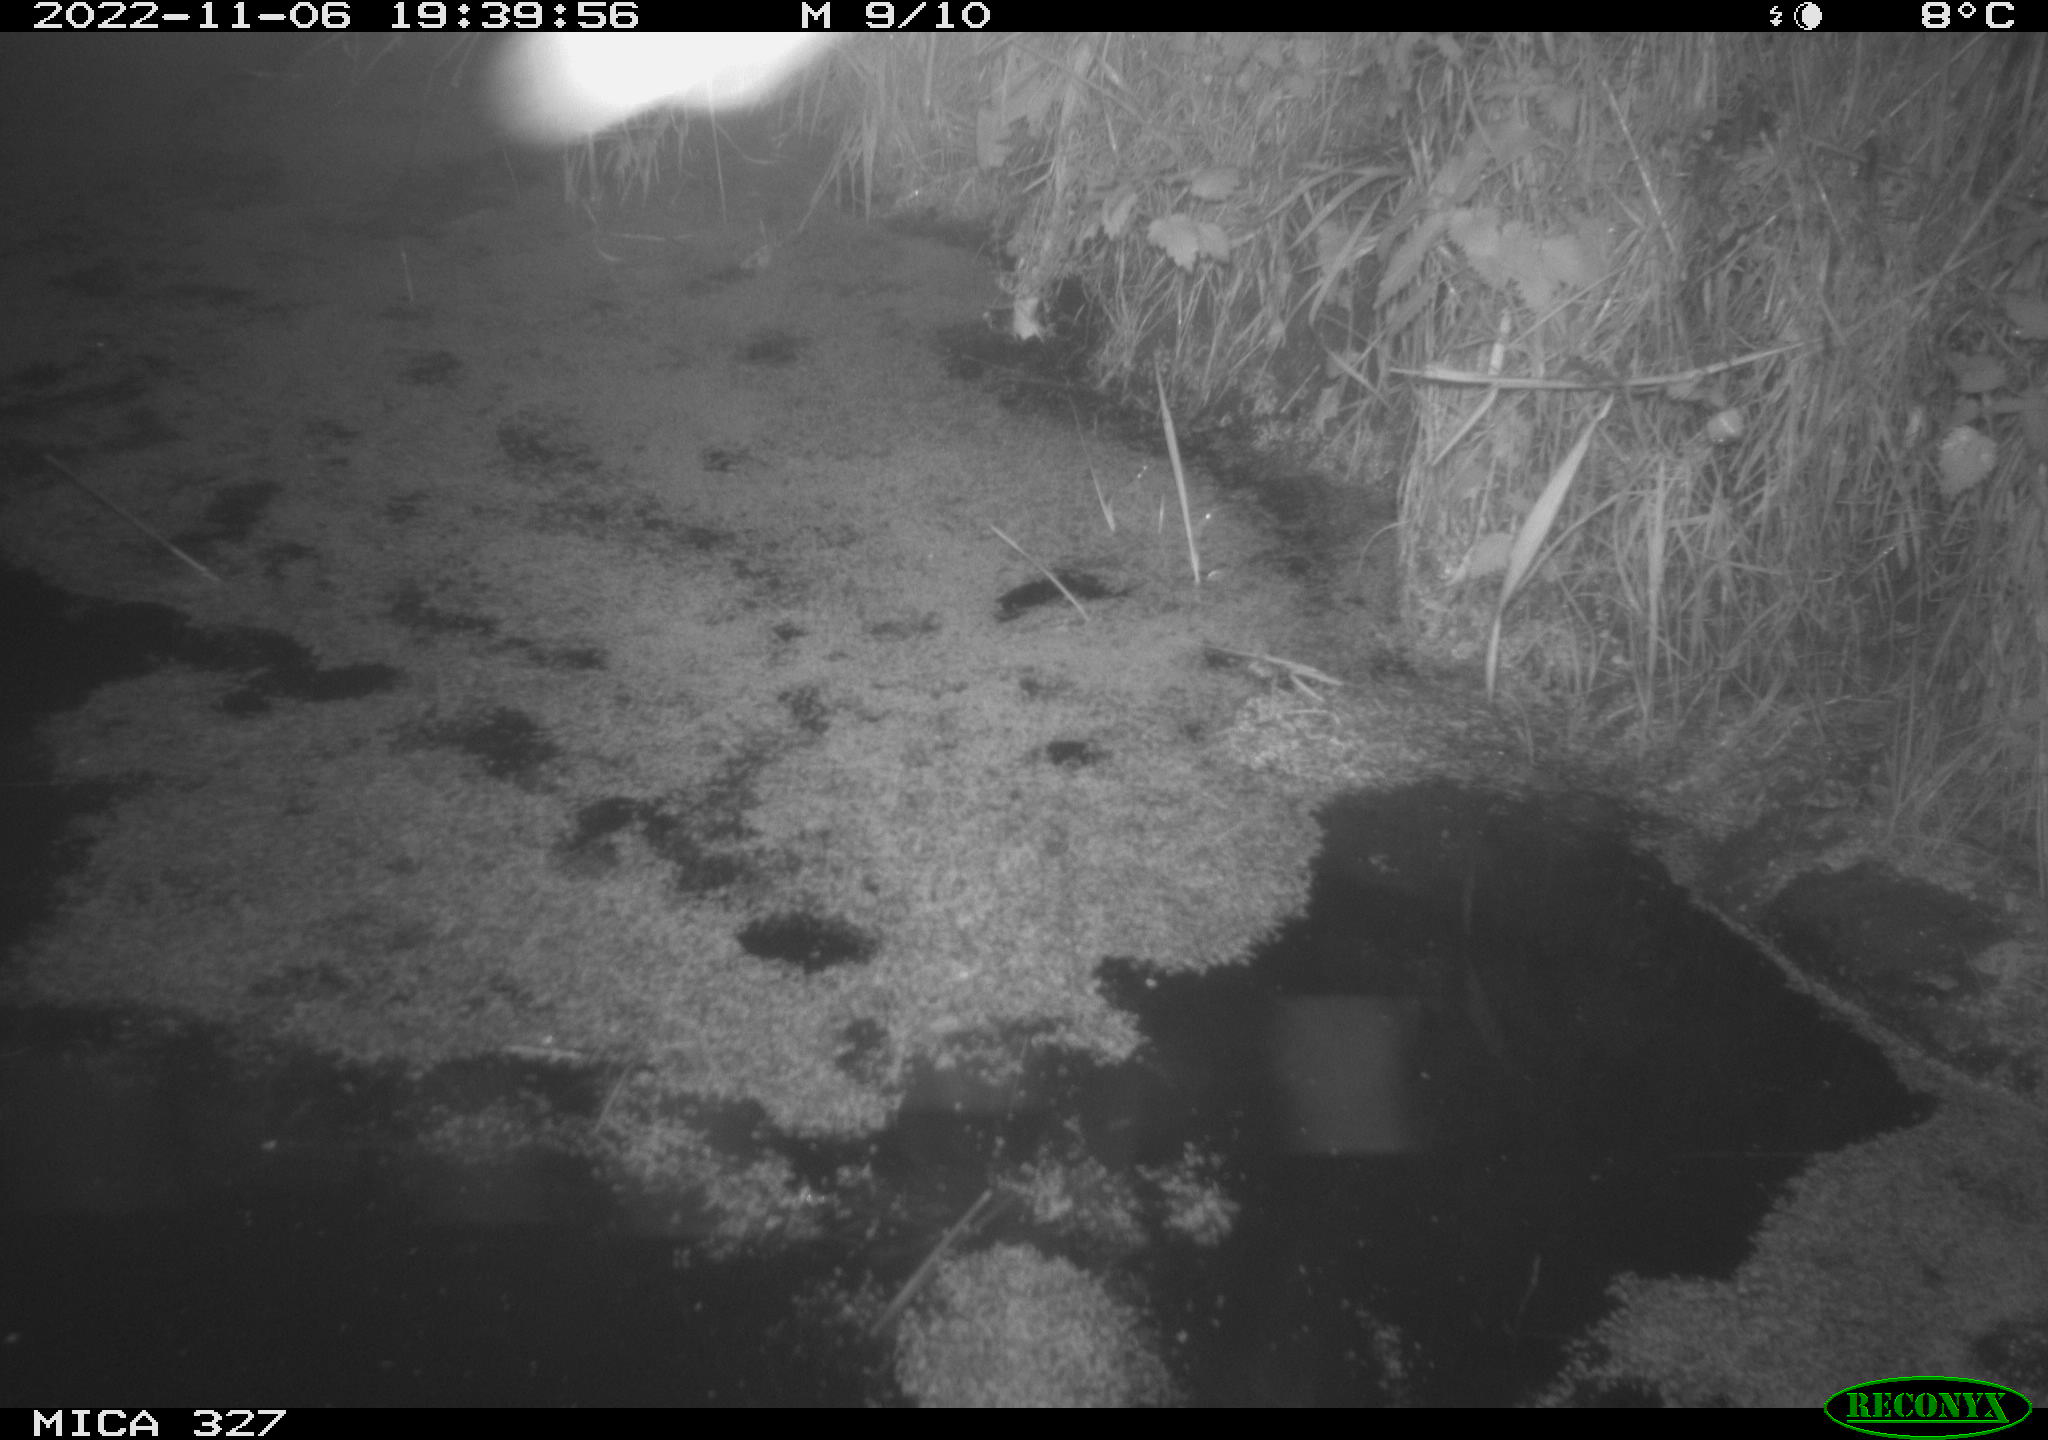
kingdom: Animalia
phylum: Chordata
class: Mammalia
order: Rodentia
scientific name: Rodentia
